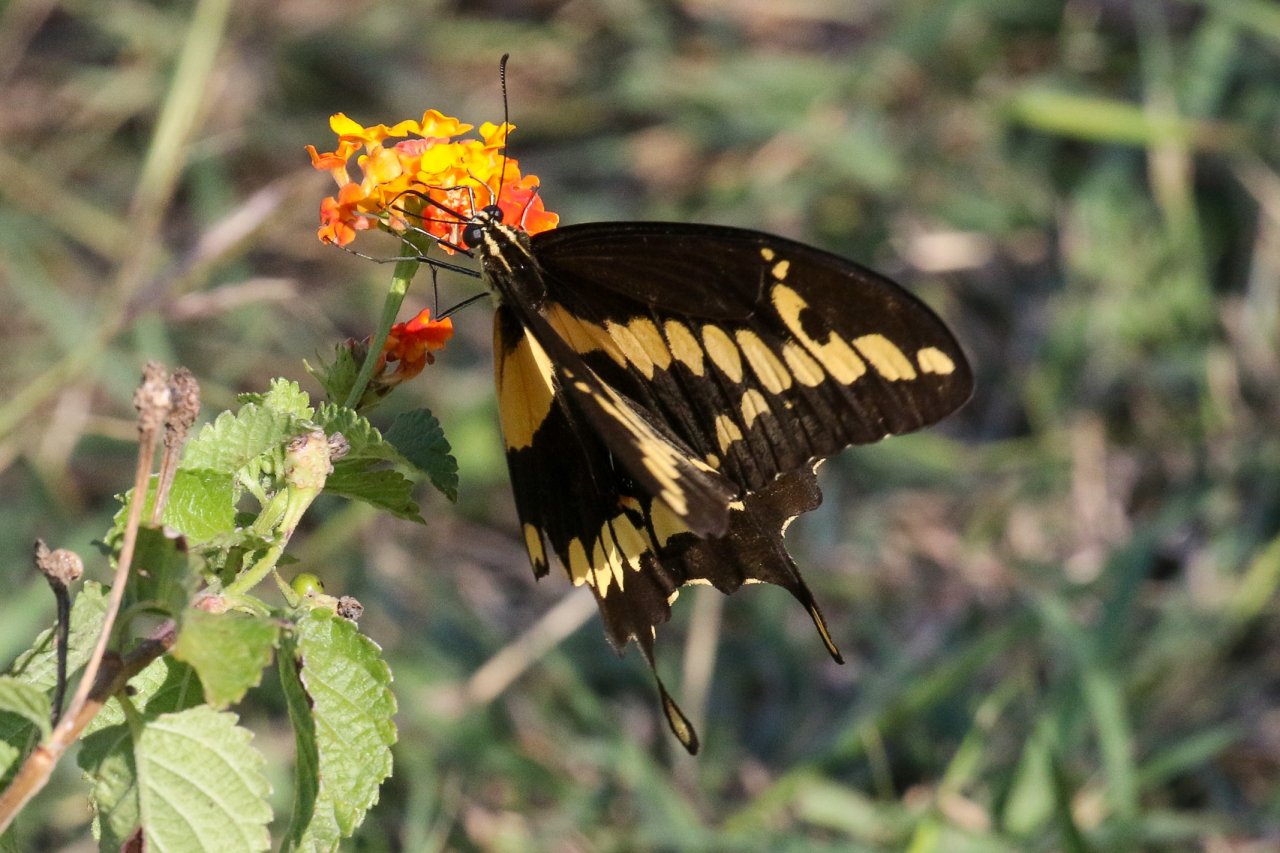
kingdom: Animalia
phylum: Arthropoda
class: Insecta
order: Lepidoptera
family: Papilionidae
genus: Papilio
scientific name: Papilio rumiko
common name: Western Giant Swallowtail
